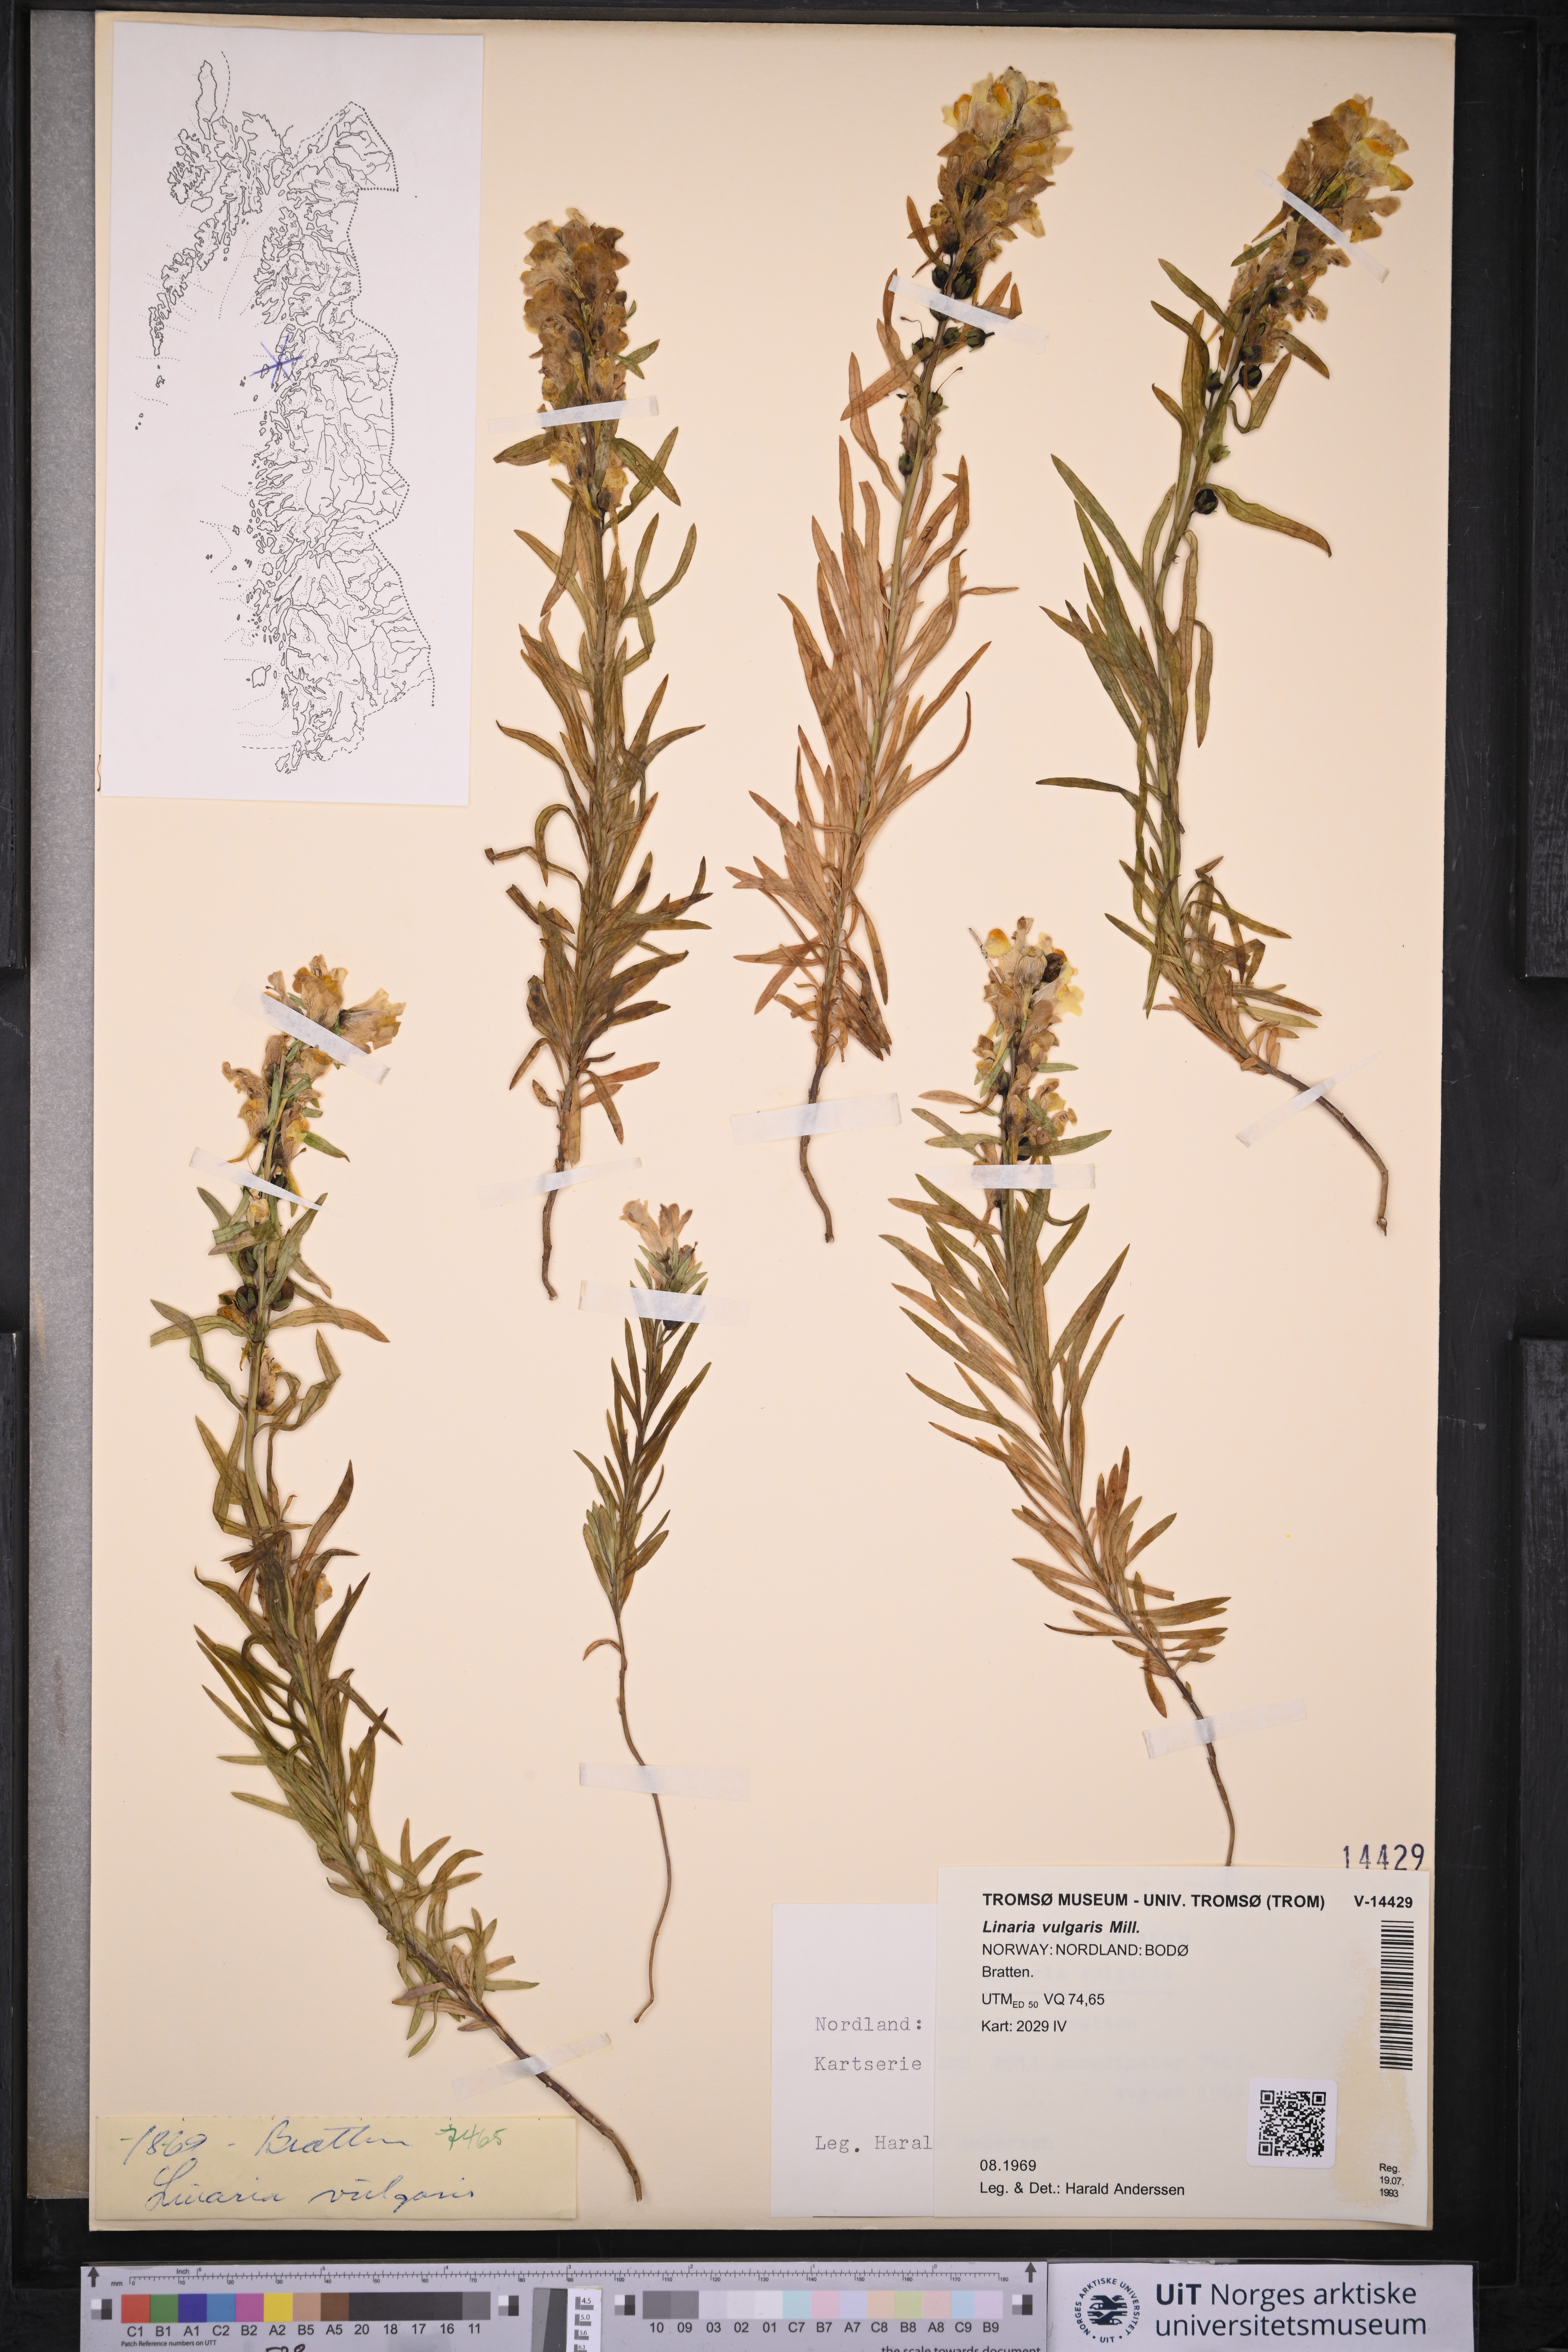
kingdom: Plantae
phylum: Tracheophyta
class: Magnoliopsida
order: Lamiales
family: Plantaginaceae
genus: Linaria
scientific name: Linaria vulgaris
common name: Butter and eggs
